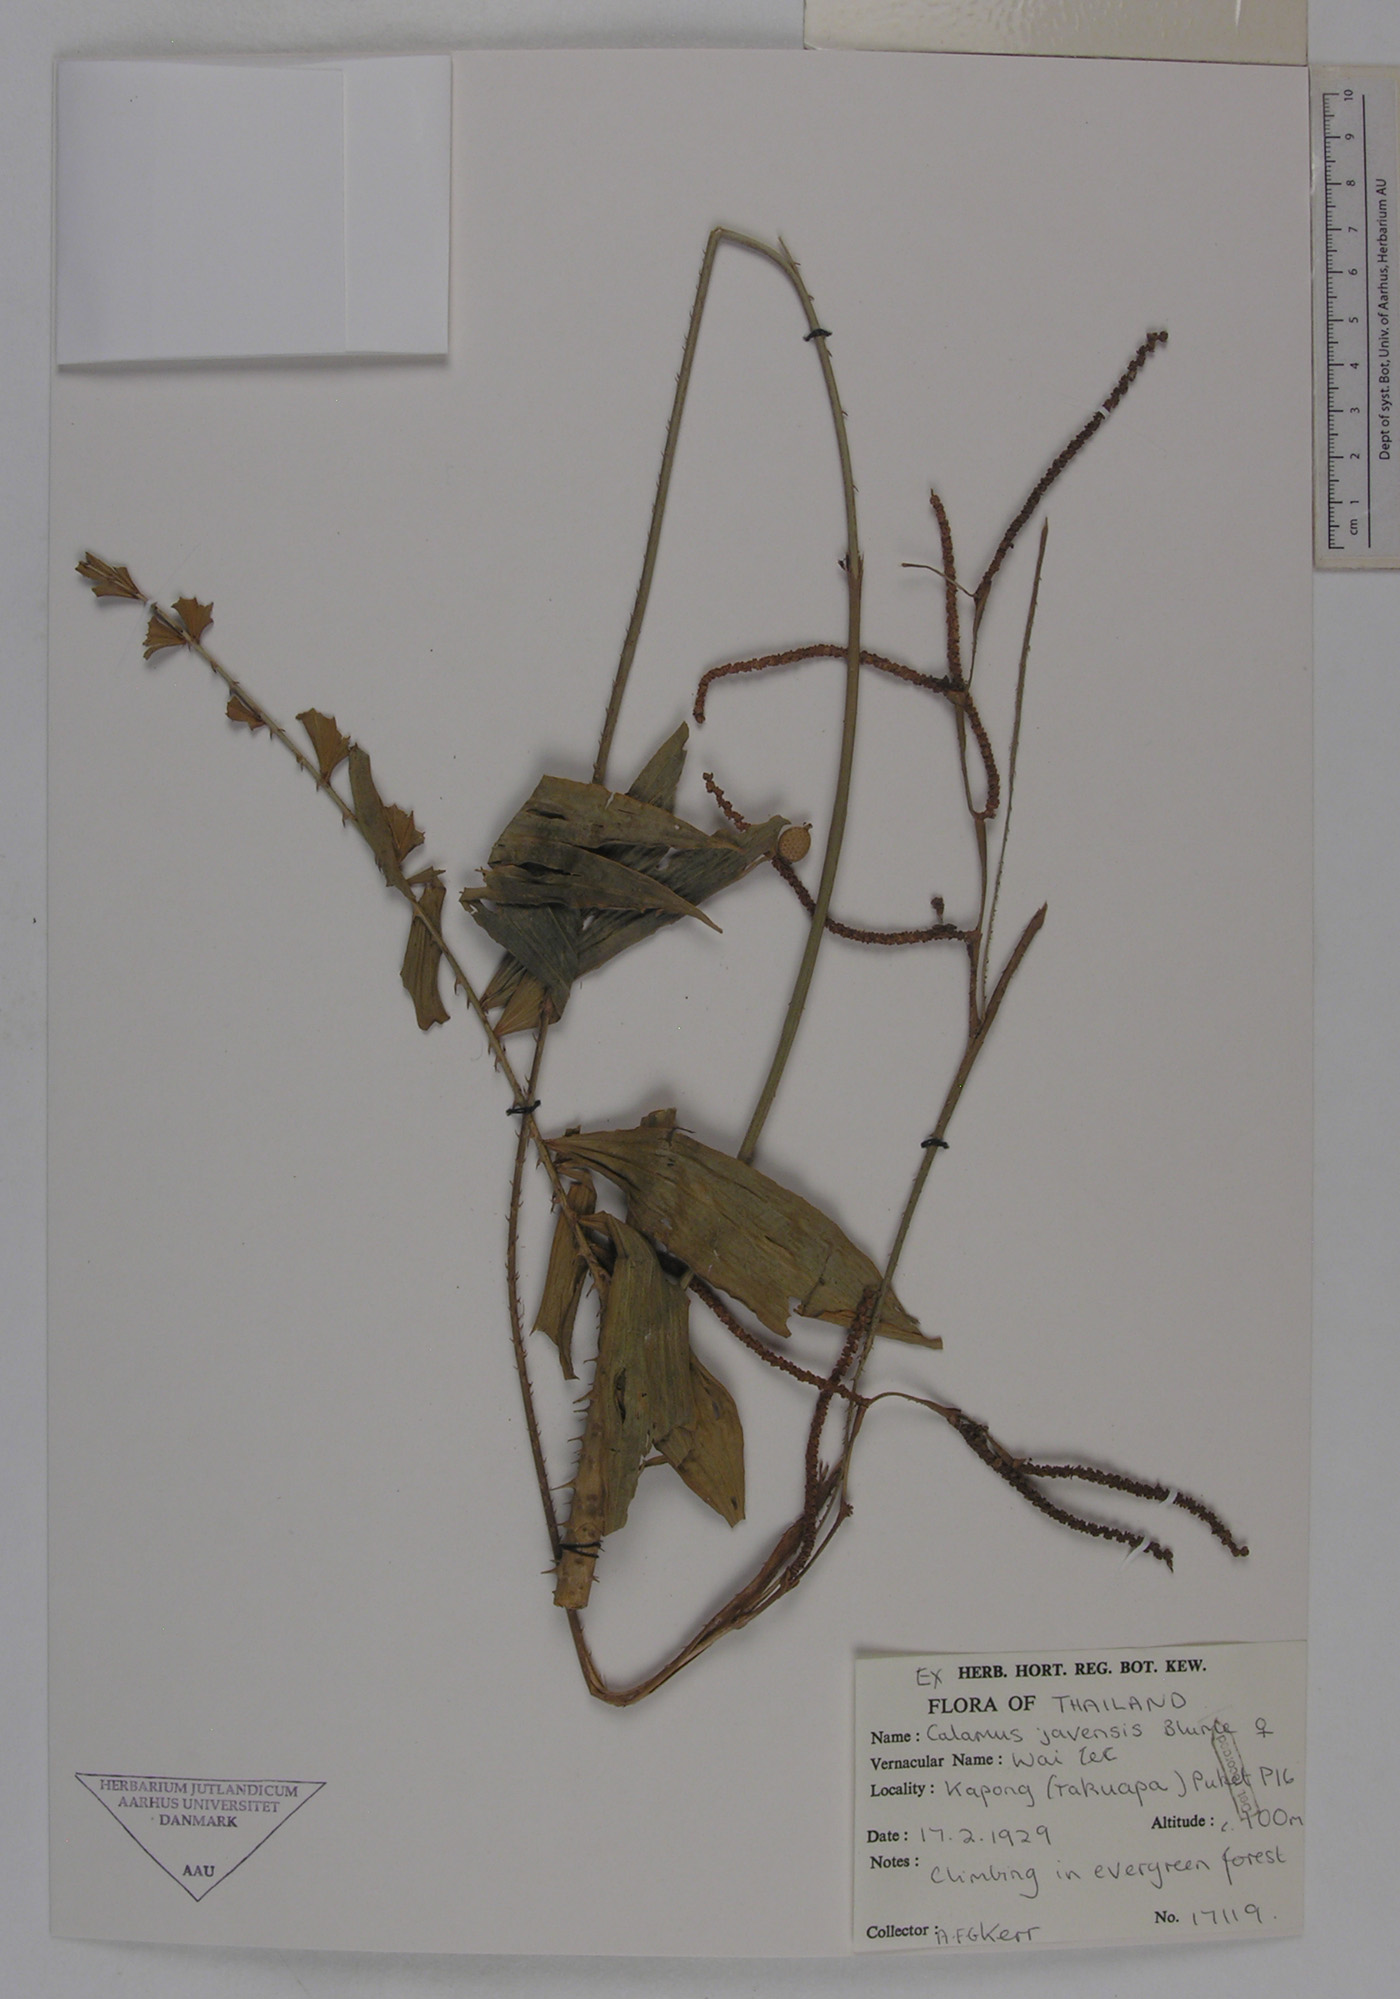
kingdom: Plantae
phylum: Tracheophyta
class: Liliopsida
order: Arecales
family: Arecaceae
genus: Calamus
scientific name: Calamus javensis
